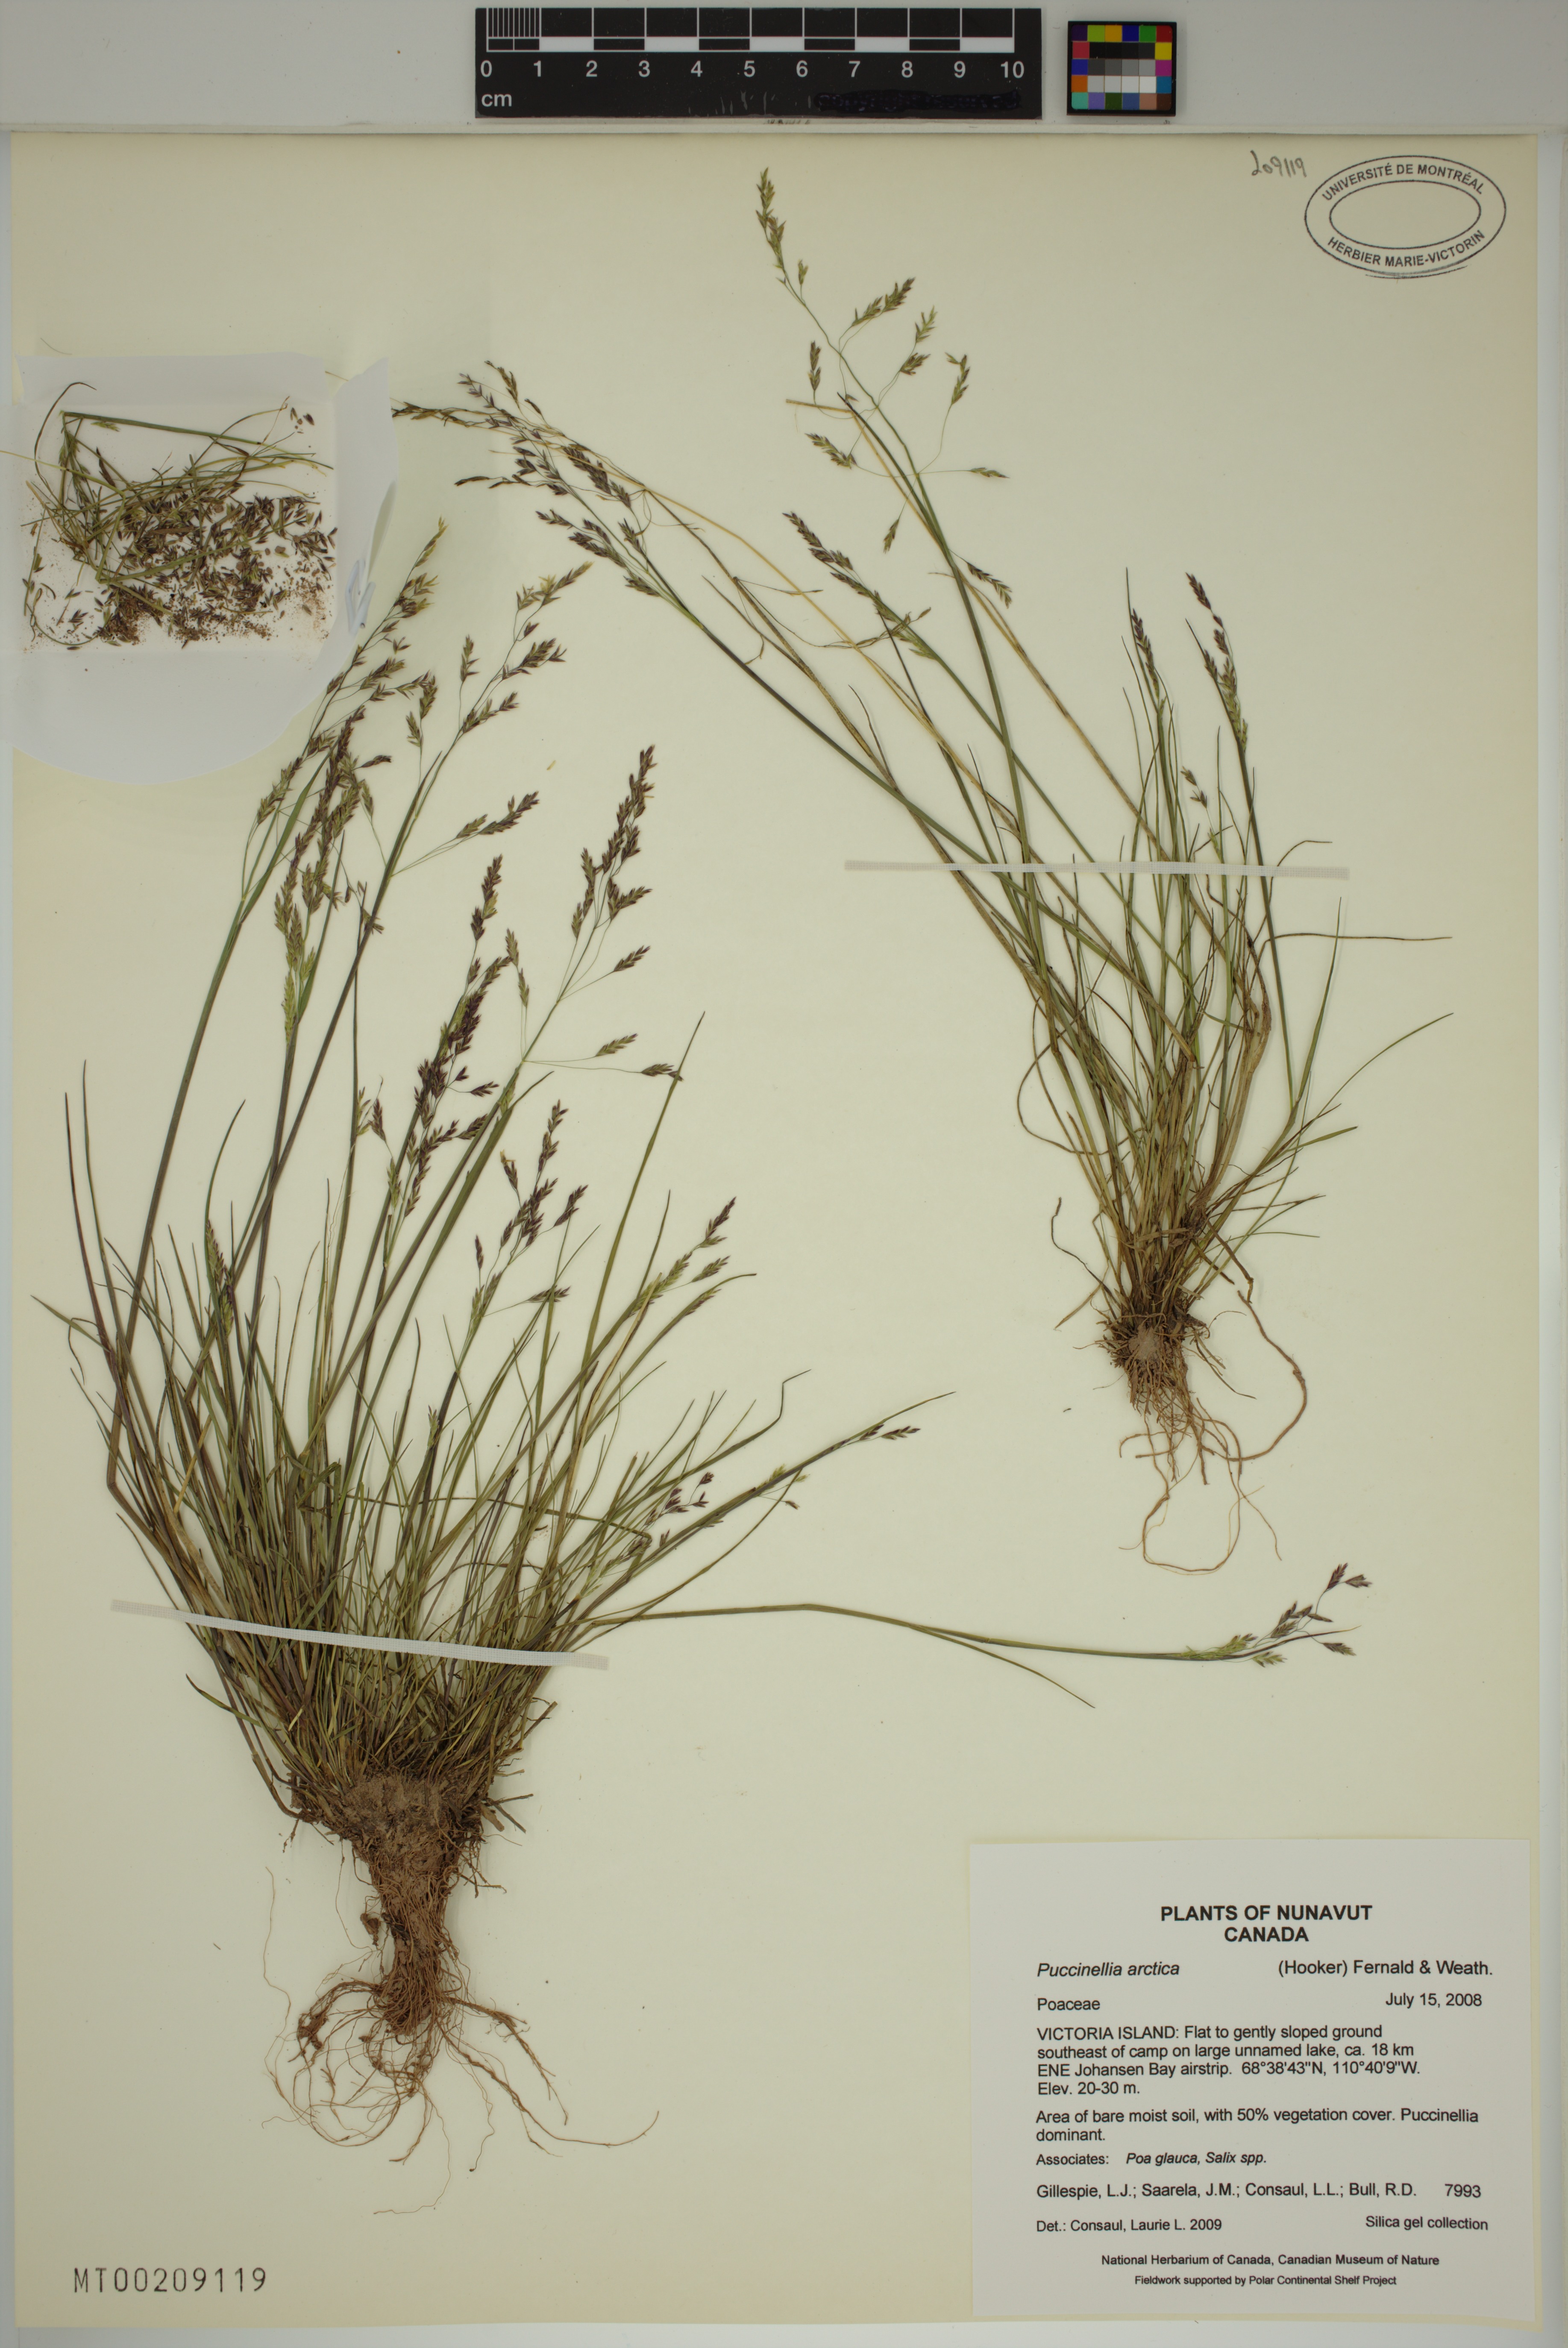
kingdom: Plantae
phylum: Tracheophyta
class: Liliopsida
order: Poales
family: Poaceae
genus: Puccinellia
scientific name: Puccinellia arctica
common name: Arctic alkali grass
